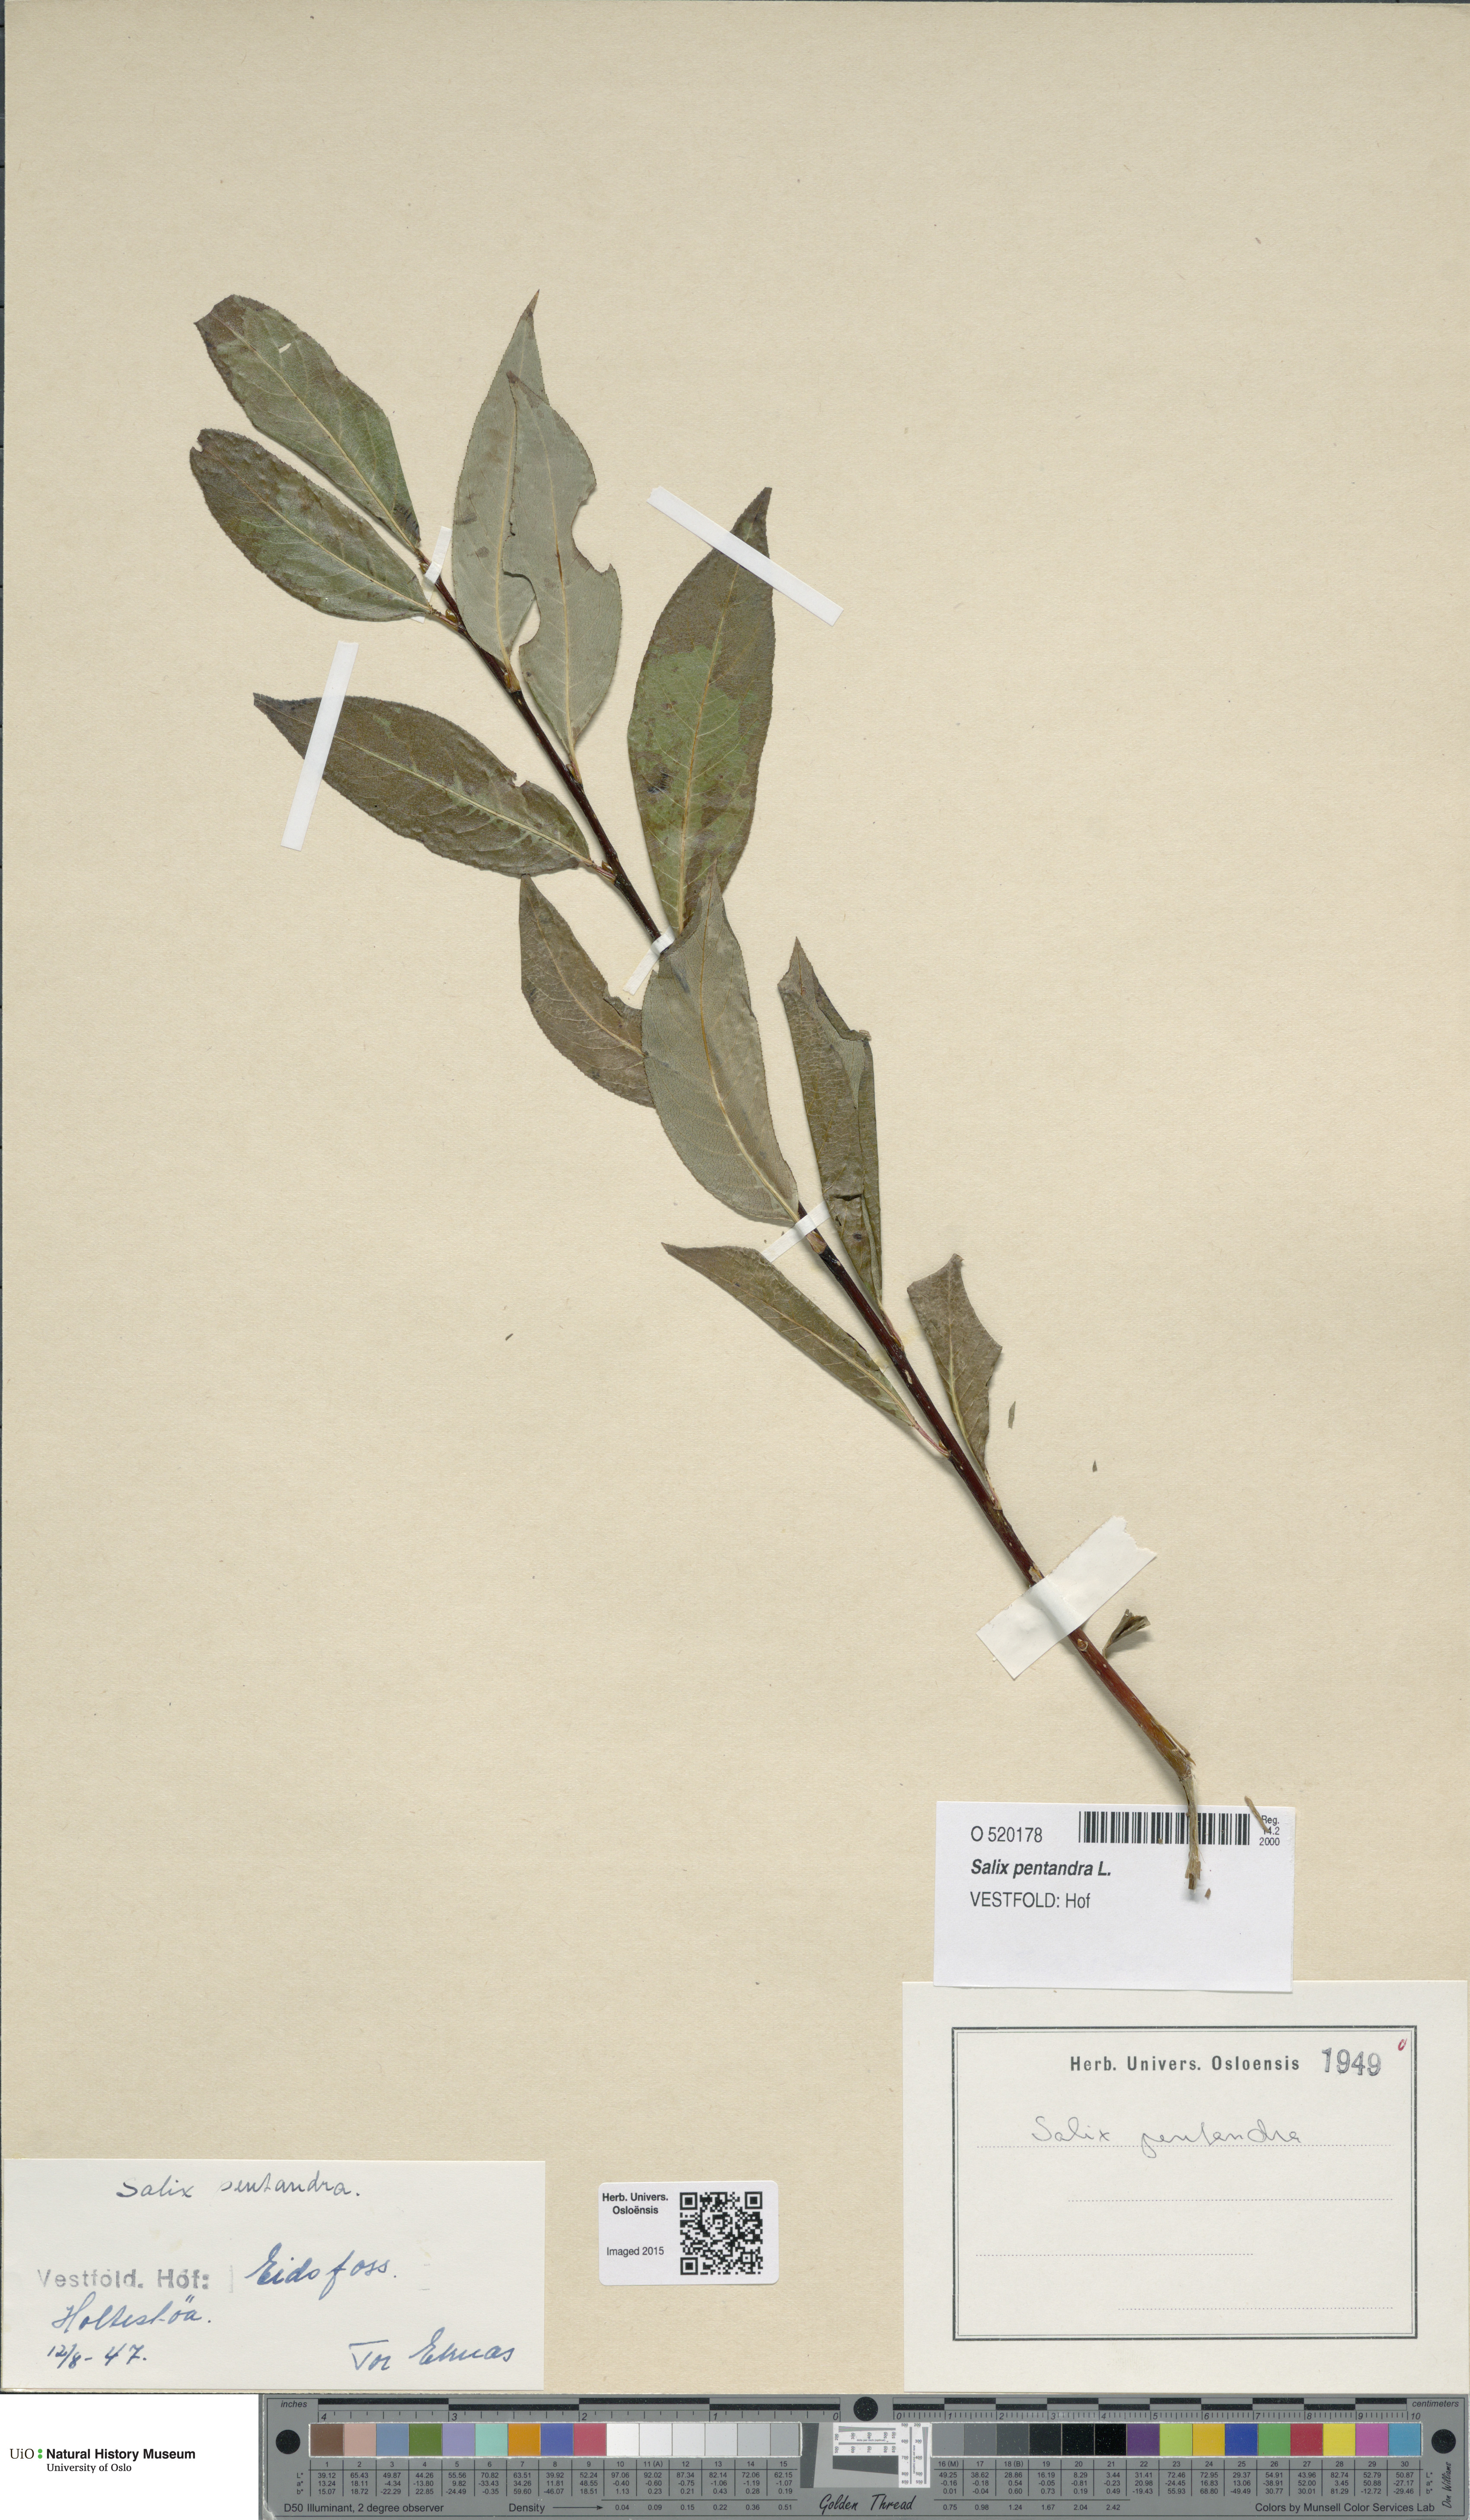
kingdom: Plantae
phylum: Tracheophyta
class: Magnoliopsida
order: Malpighiales
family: Salicaceae
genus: Salix
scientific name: Salix pentandra
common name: Bay willow
